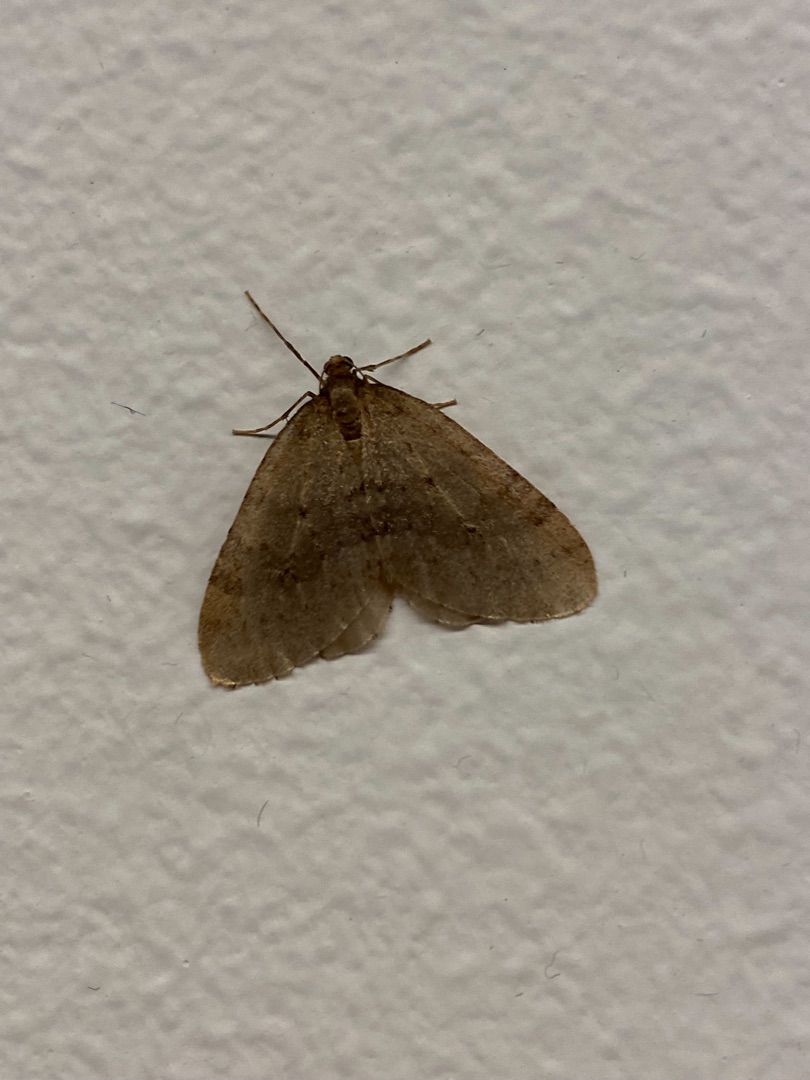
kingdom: Animalia
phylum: Arthropoda
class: Insecta
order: Lepidoptera
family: Geometridae
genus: Operophtera
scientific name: Operophtera brumata
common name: Lille frostmåler
